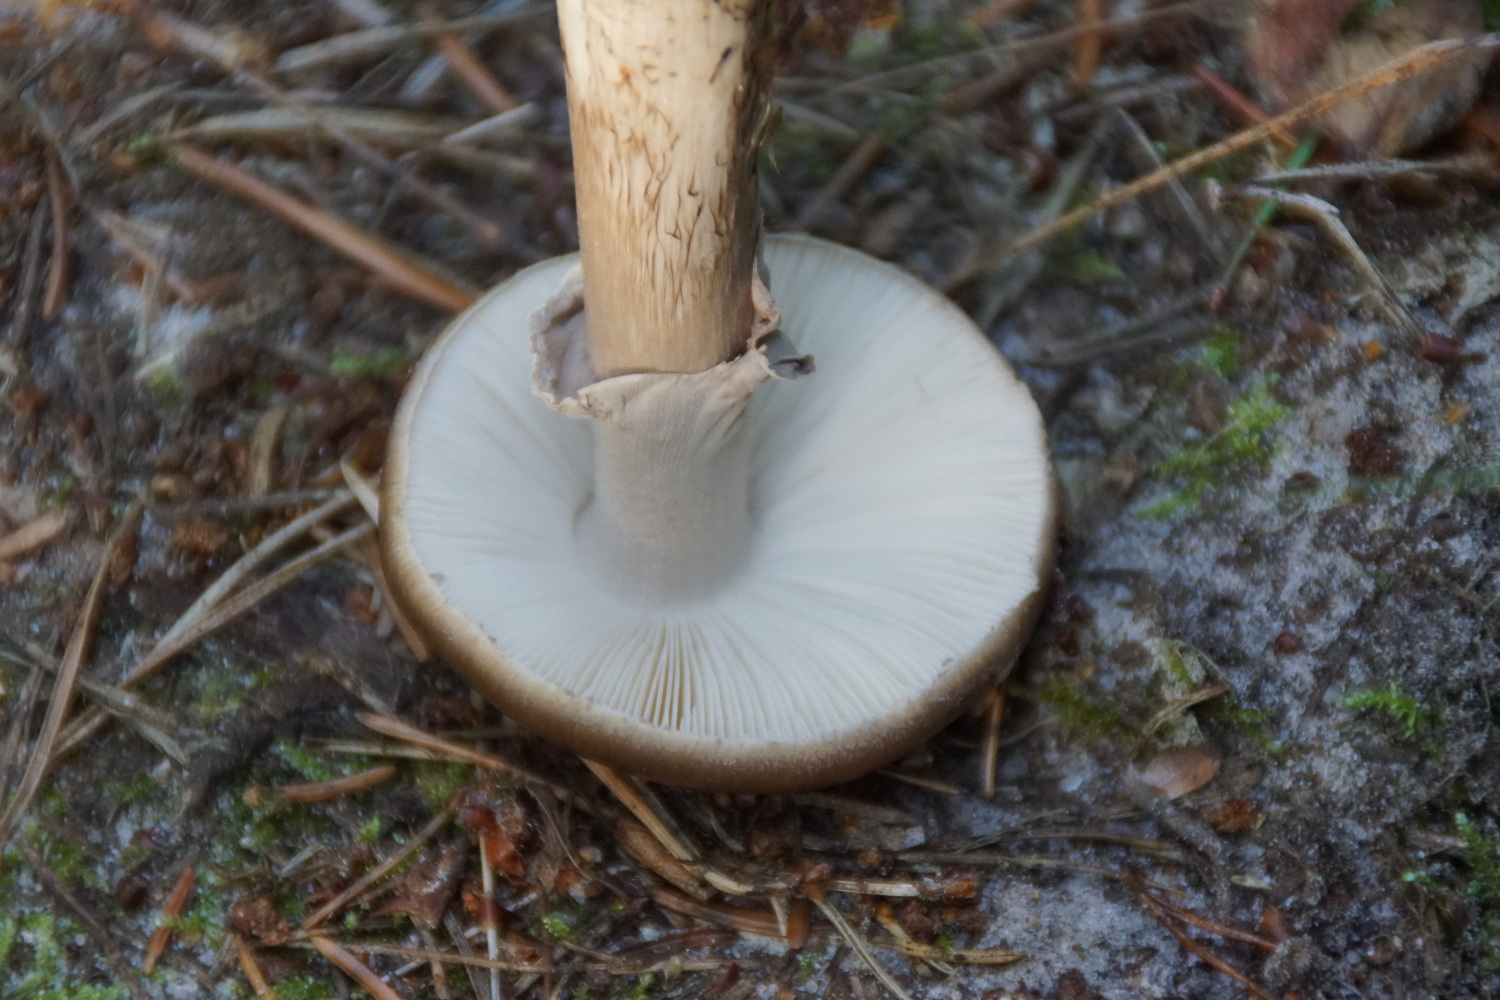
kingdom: Fungi
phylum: Basidiomycota
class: Agaricomycetes
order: Agaricales
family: Amanitaceae
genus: Amanita
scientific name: Amanita porphyria
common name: porfyr-fluesvamp
